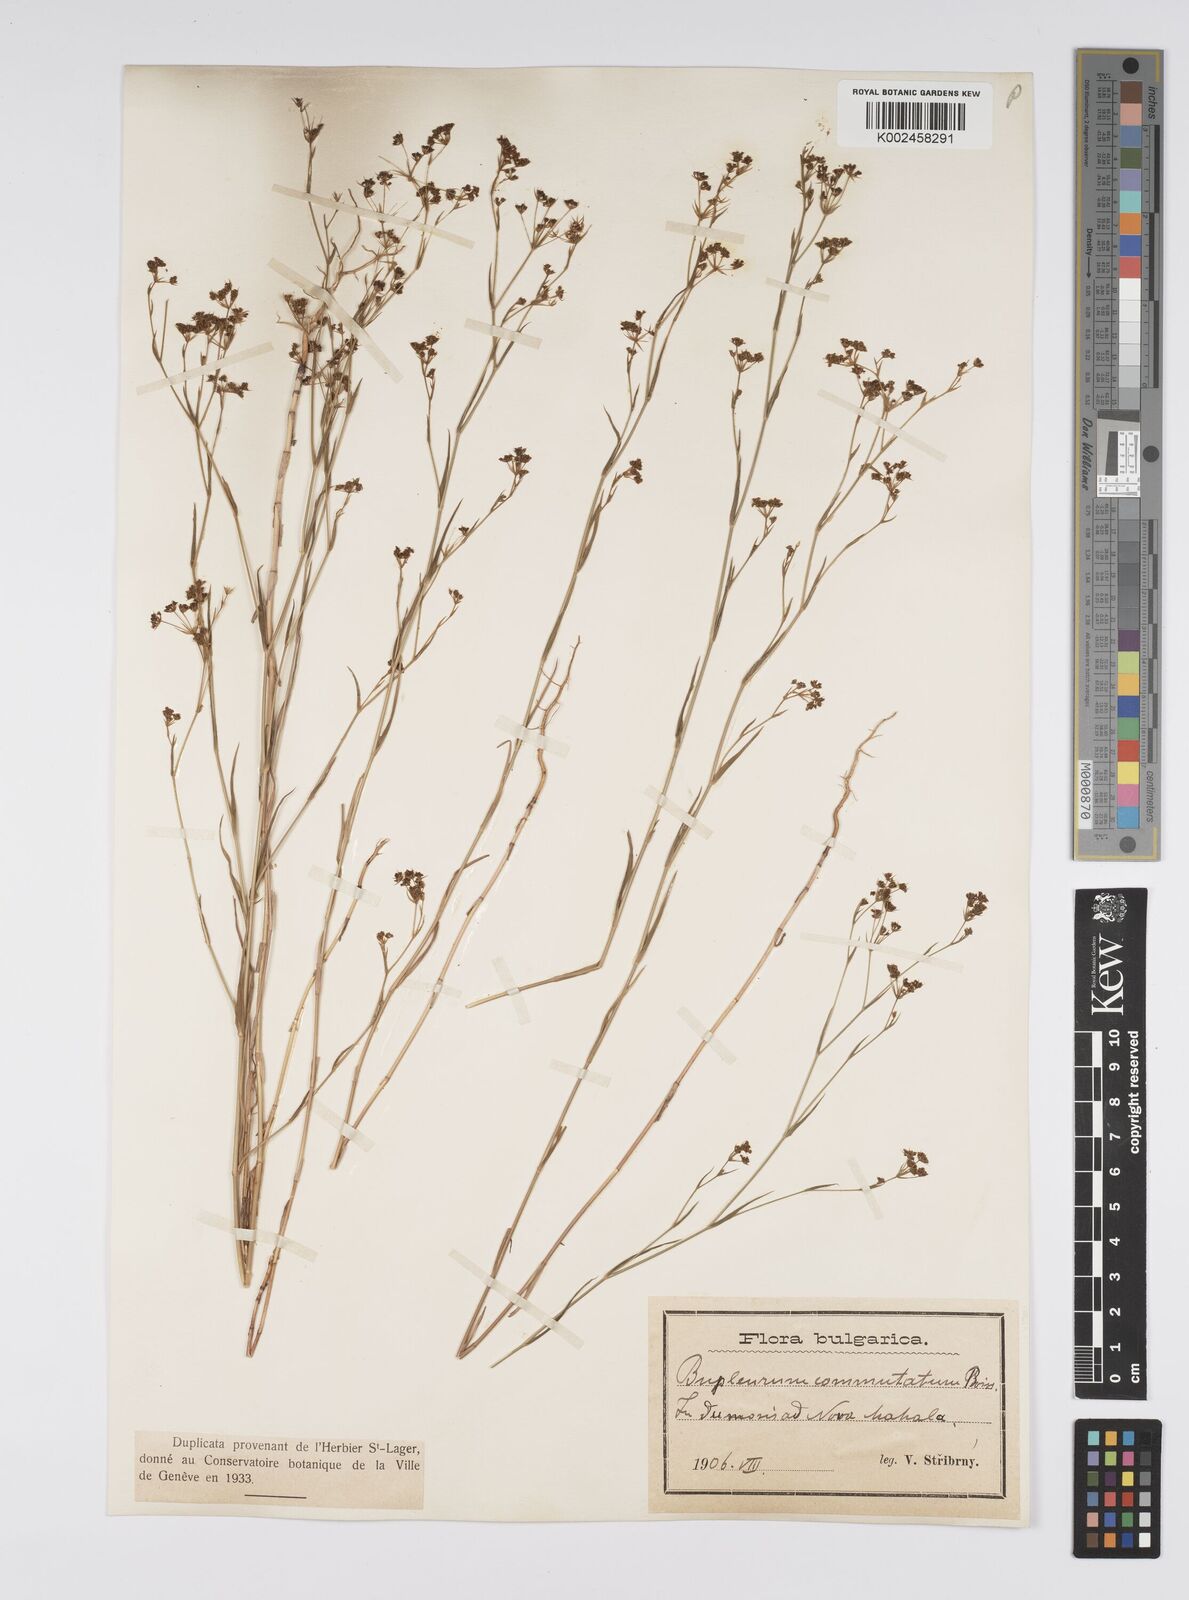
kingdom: Plantae
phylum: Tracheophyta
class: Magnoliopsida
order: Apiales
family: Apiaceae
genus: Bupleurum
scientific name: Bupleurum commutatum
